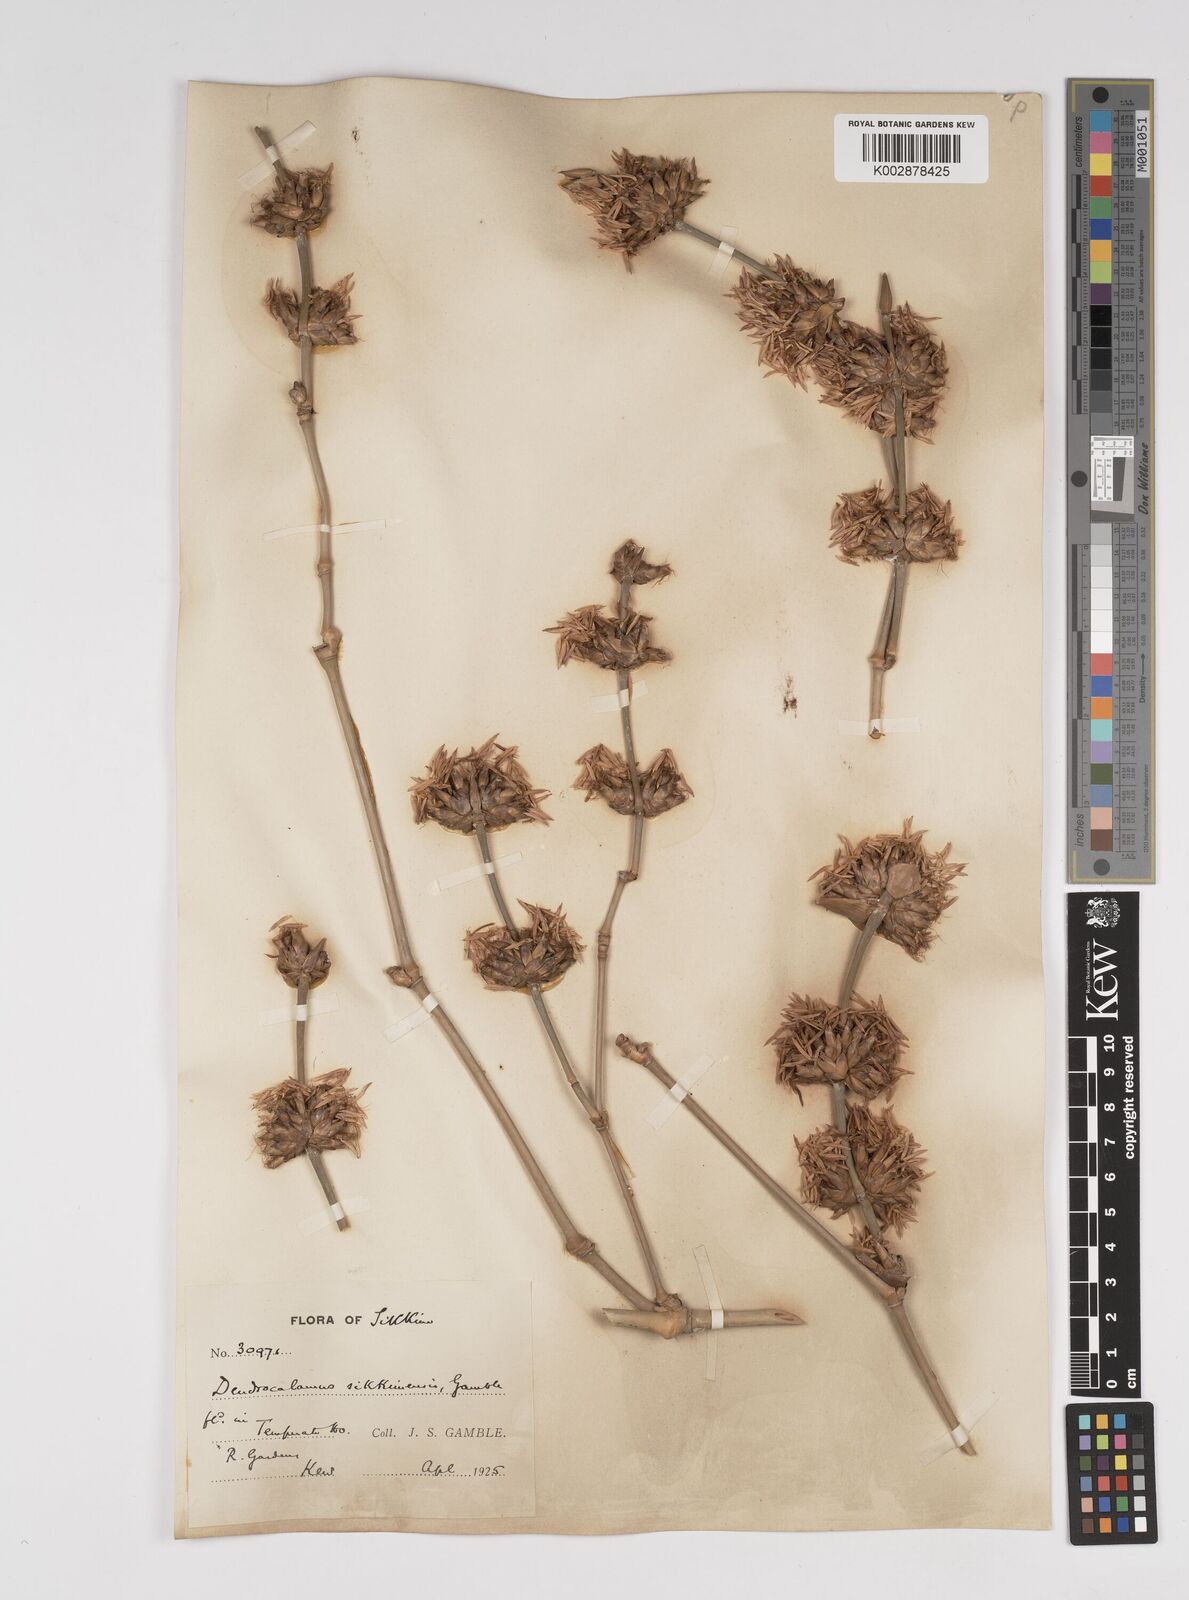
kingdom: Plantae
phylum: Tracheophyta
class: Liliopsida
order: Poales
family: Poaceae
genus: Dendrocalamus
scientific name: Dendrocalamus sikkimensis
